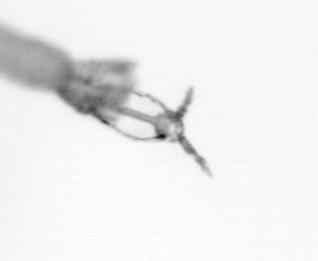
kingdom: Animalia
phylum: Arthropoda
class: Copepoda
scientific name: Copepoda
